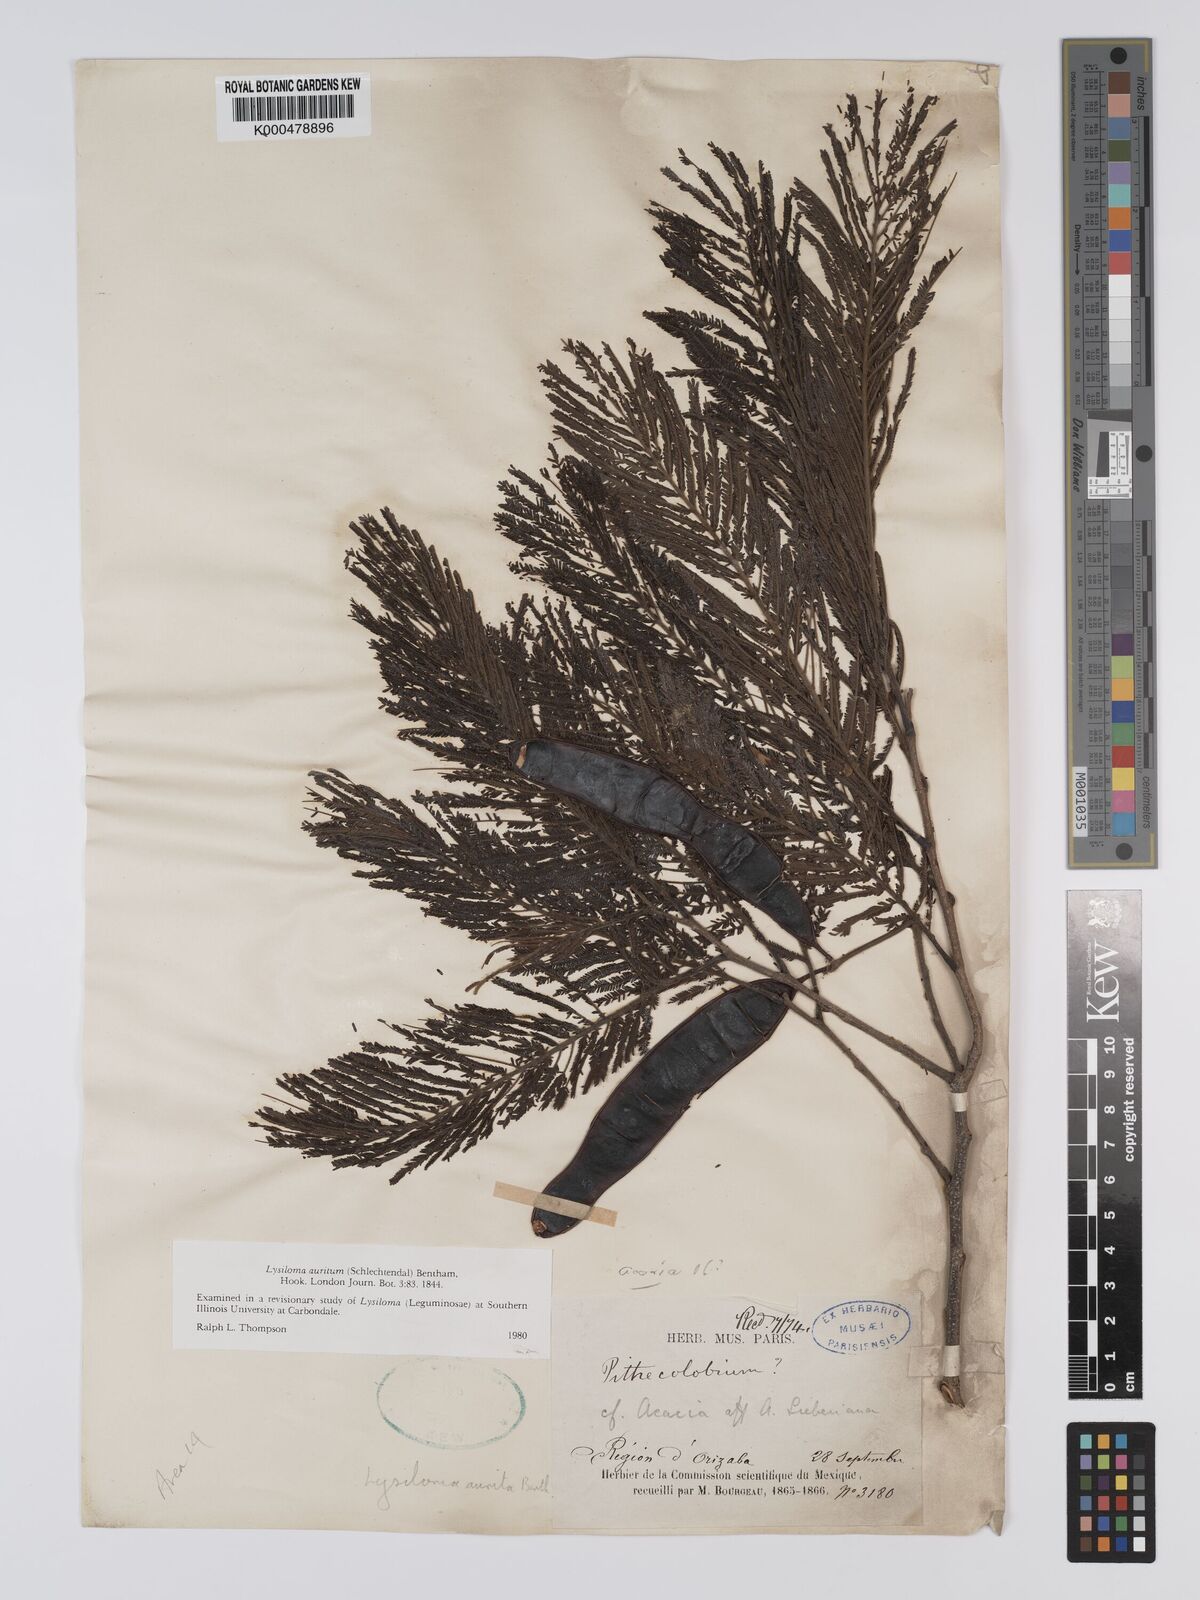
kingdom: Plantae
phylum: Tracheophyta
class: Magnoliopsida
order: Fabales
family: Fabaceae
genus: Lysiloma
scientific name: Lysiloma auritum
